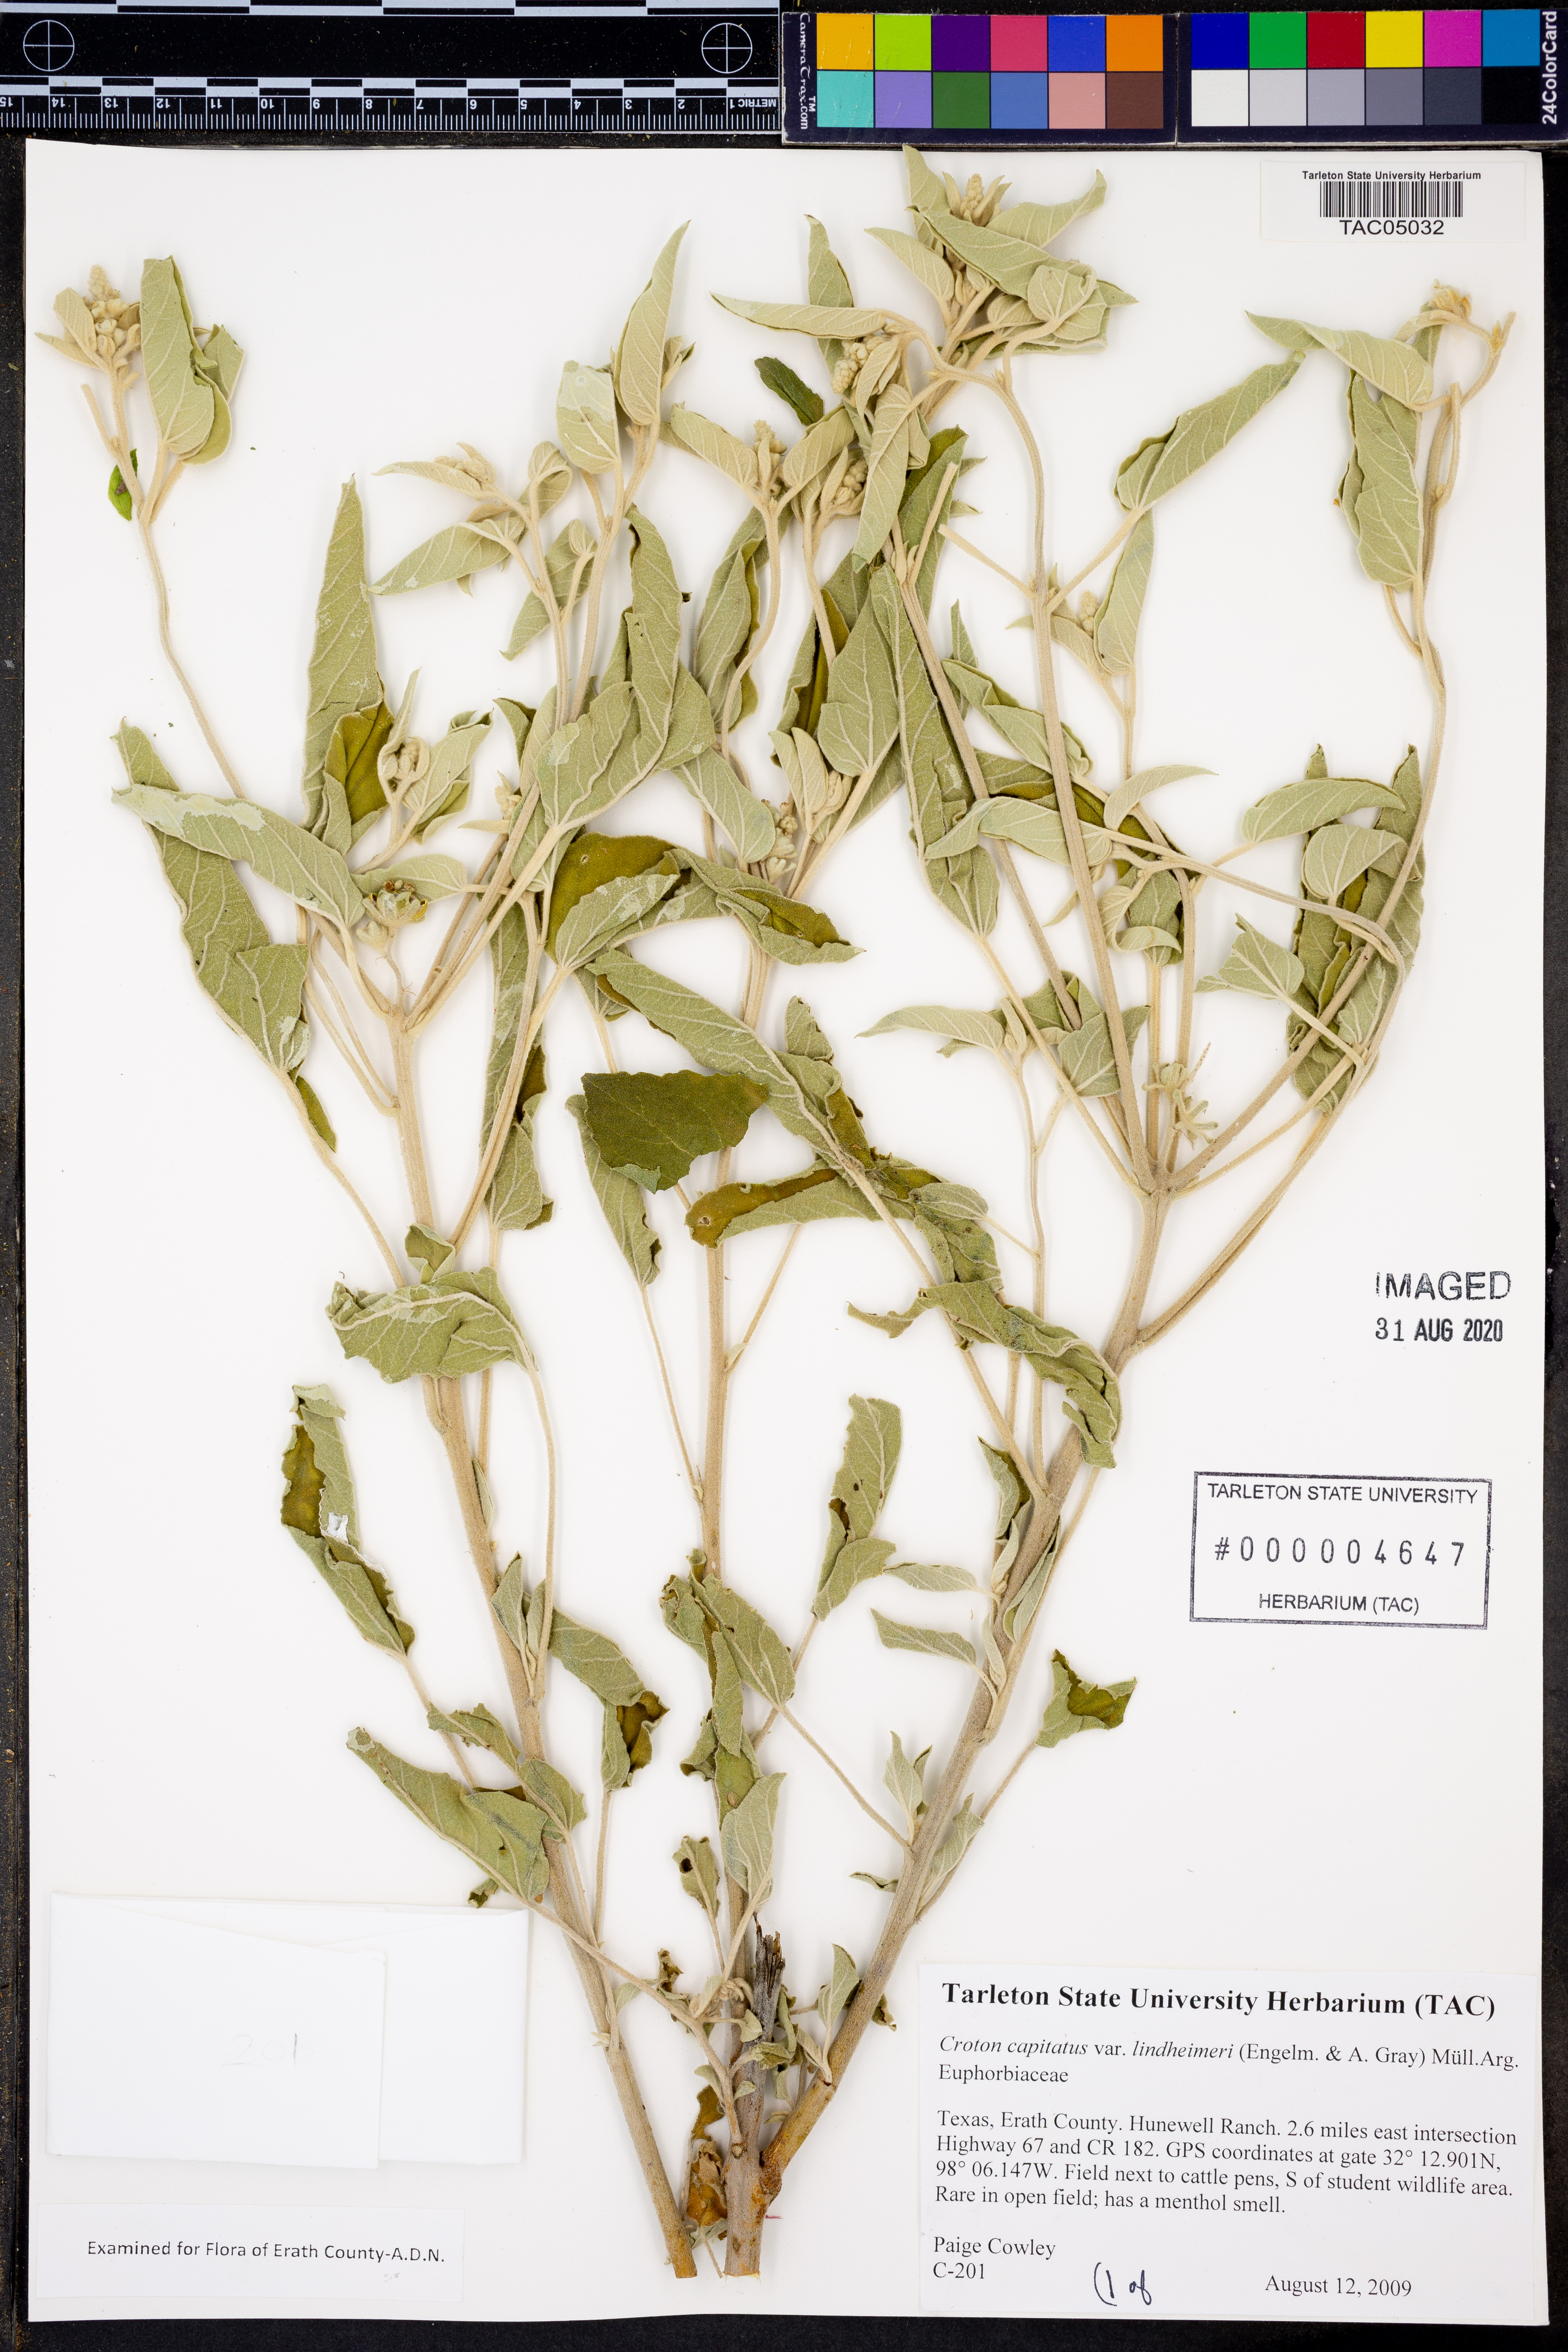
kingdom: Plantae
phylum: Tracheophyta
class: Magnoliopsida
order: Malpighiales
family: Euphorbiaceae
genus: Croton
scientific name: Croton lindheimeri
